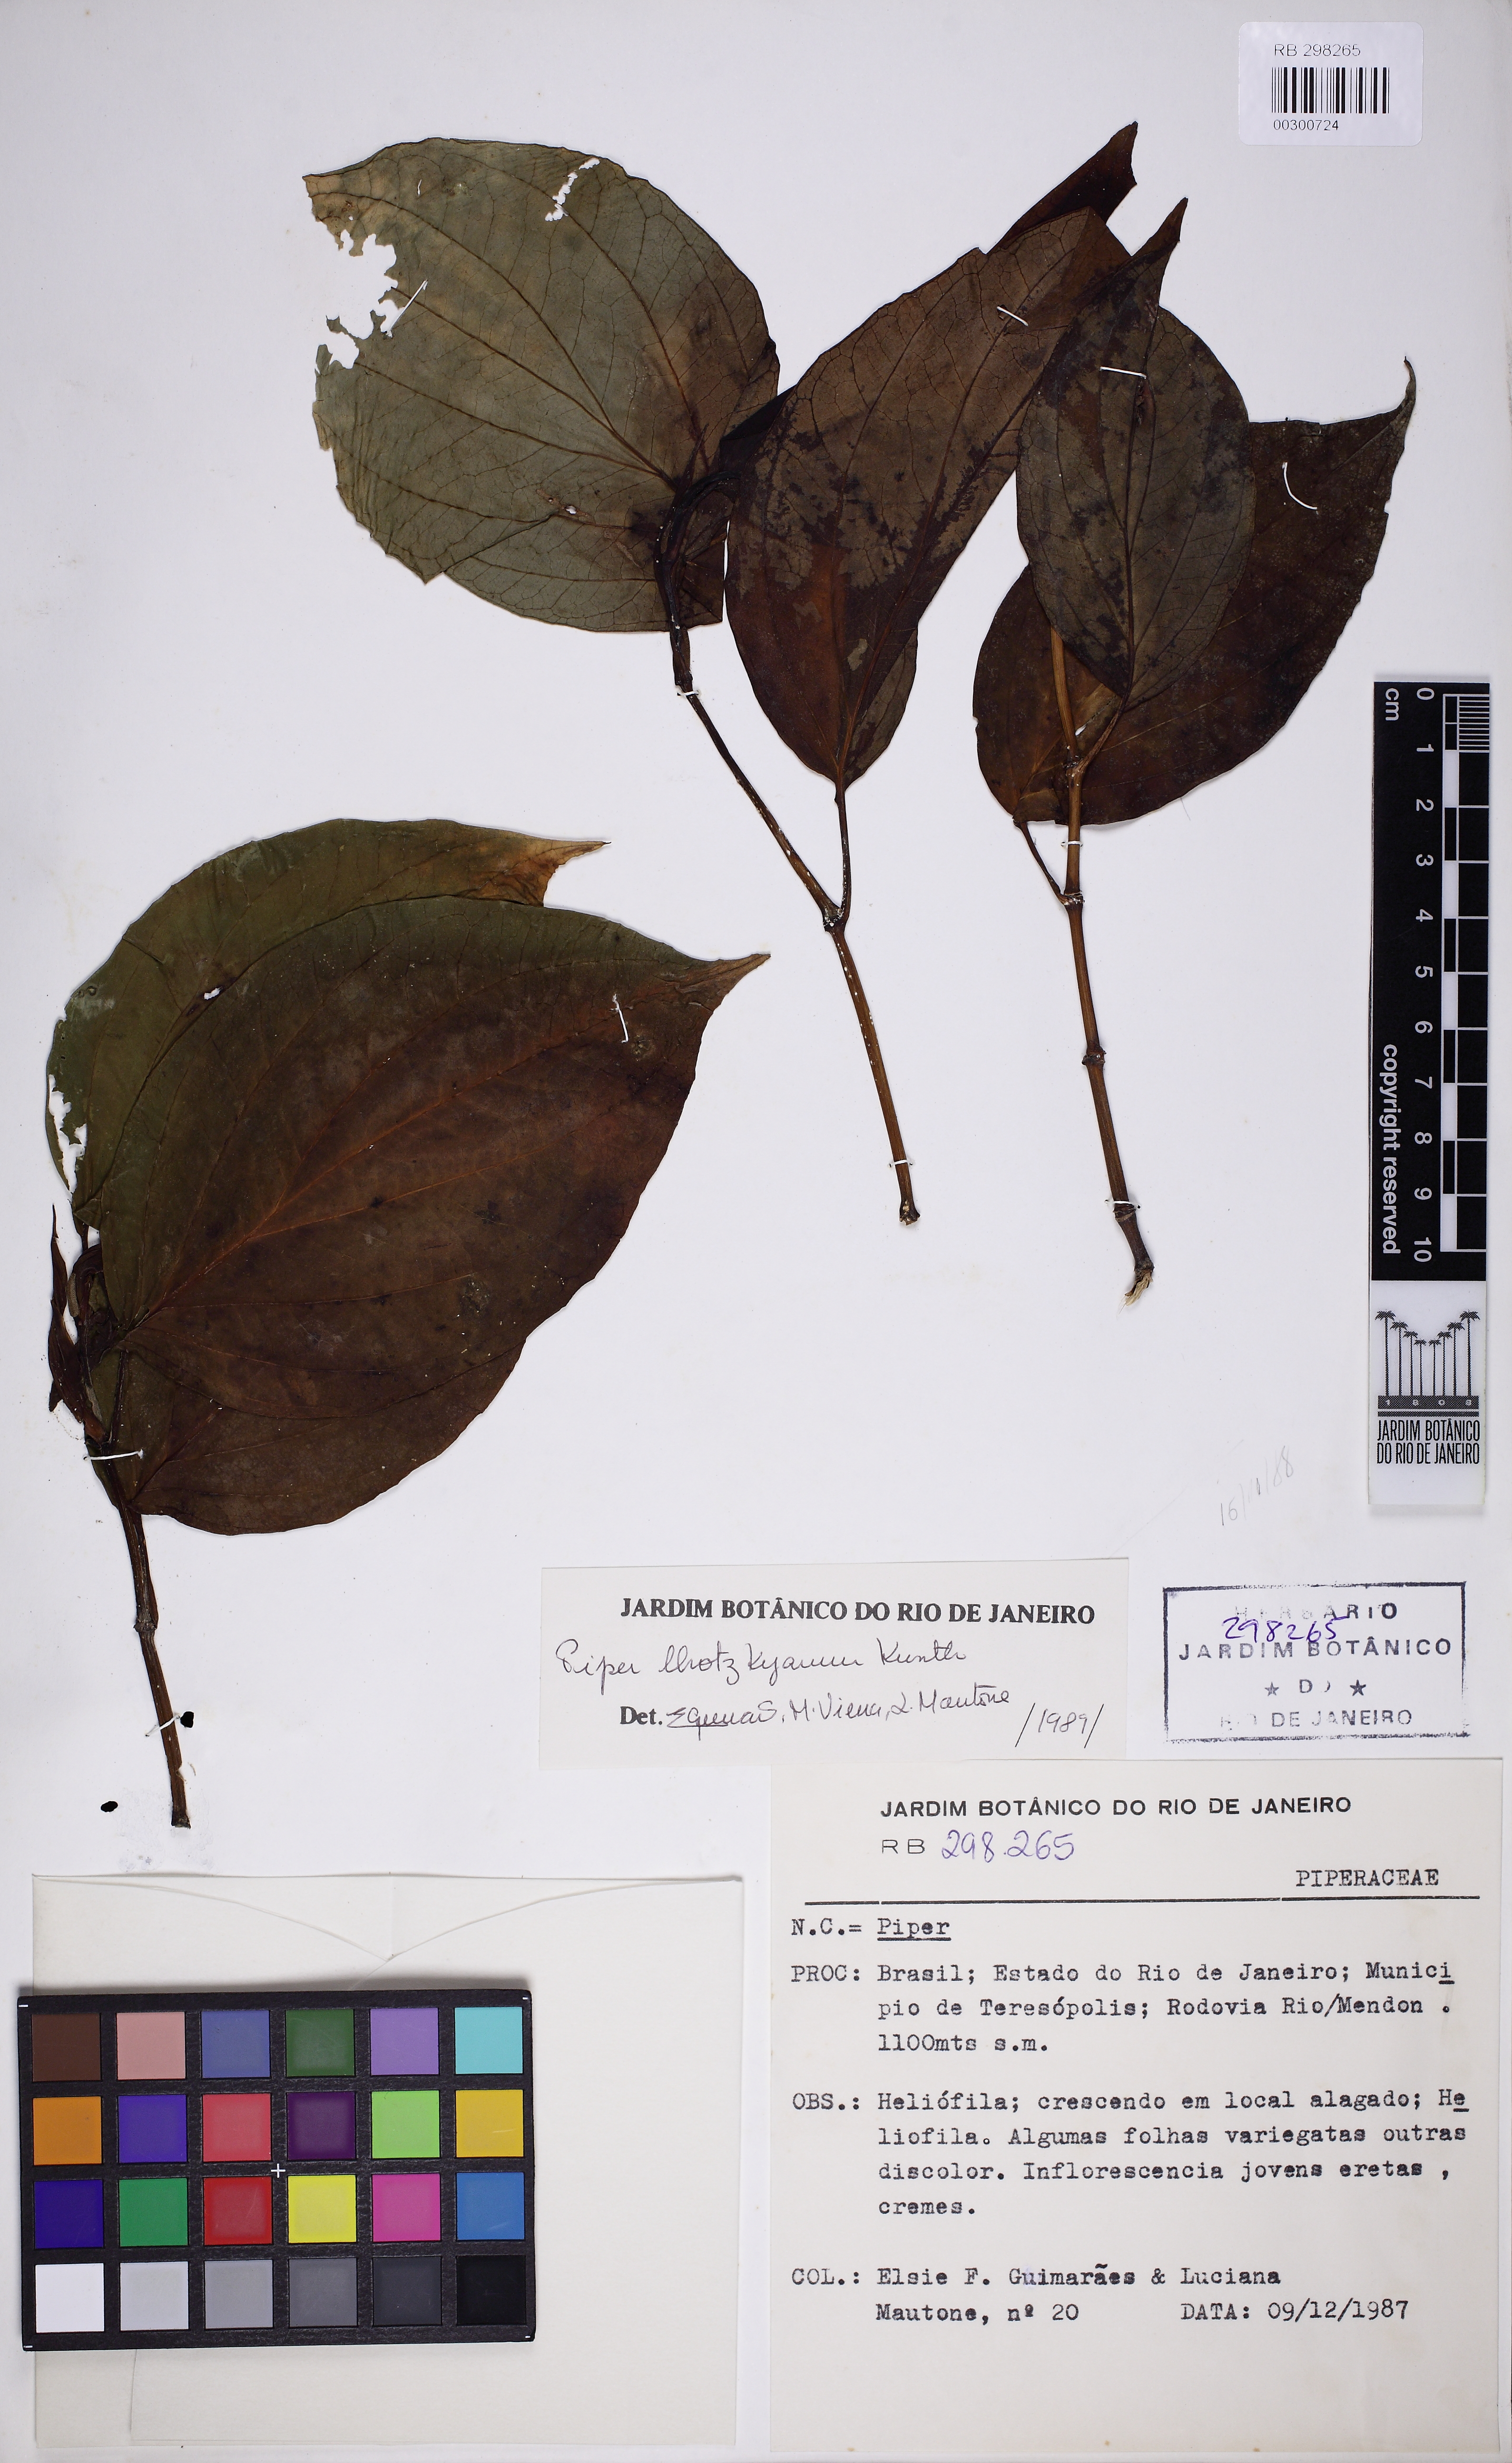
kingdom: Plantae
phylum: Tracheophyta
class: Magnoliopsida
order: Piperales
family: Piperaceae
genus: Piper
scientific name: Piper lhotzkyanum
